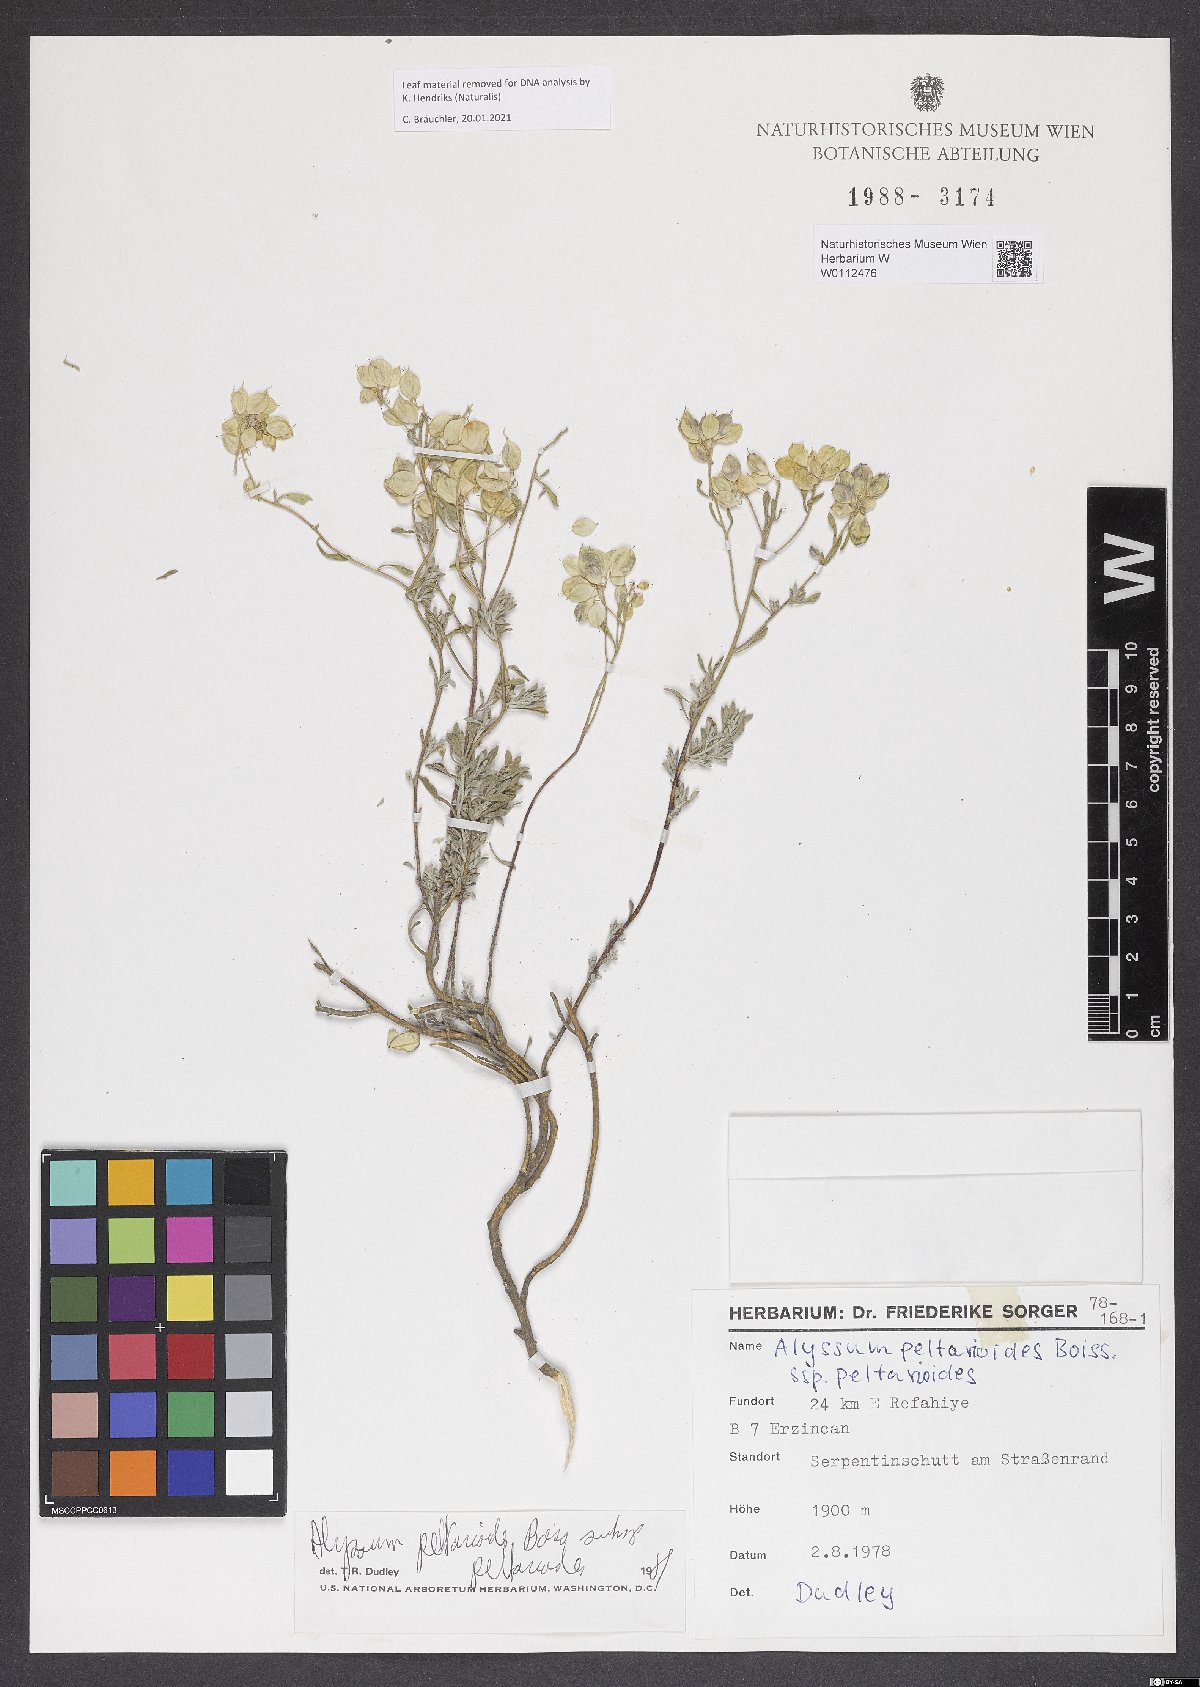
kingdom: Plantae
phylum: Tracheophyta
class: Magnoliopsida
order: Brassicales
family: Brassicaceae
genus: Odontarrhena
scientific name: Odontarrhena peltarioidea
